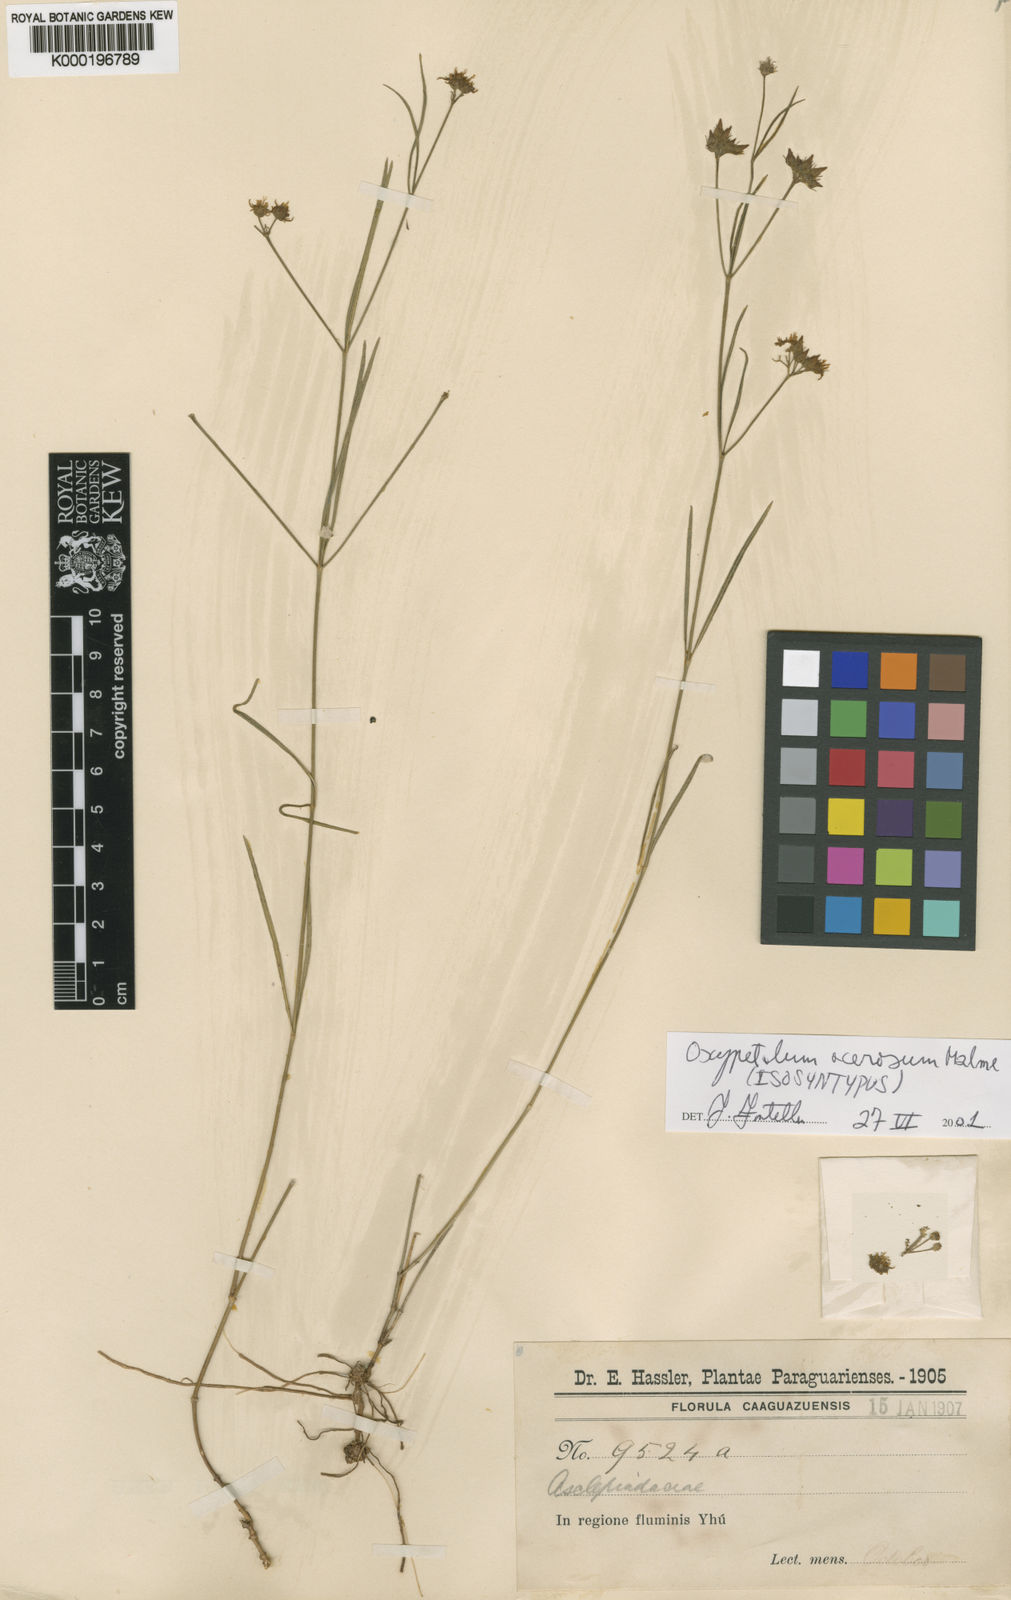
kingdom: Plantae
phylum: Tracheophyta
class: Magnoliopsida
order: Gentianales
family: Apocynaceae
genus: Oxypetalum
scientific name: Oxypetalum acerosum
